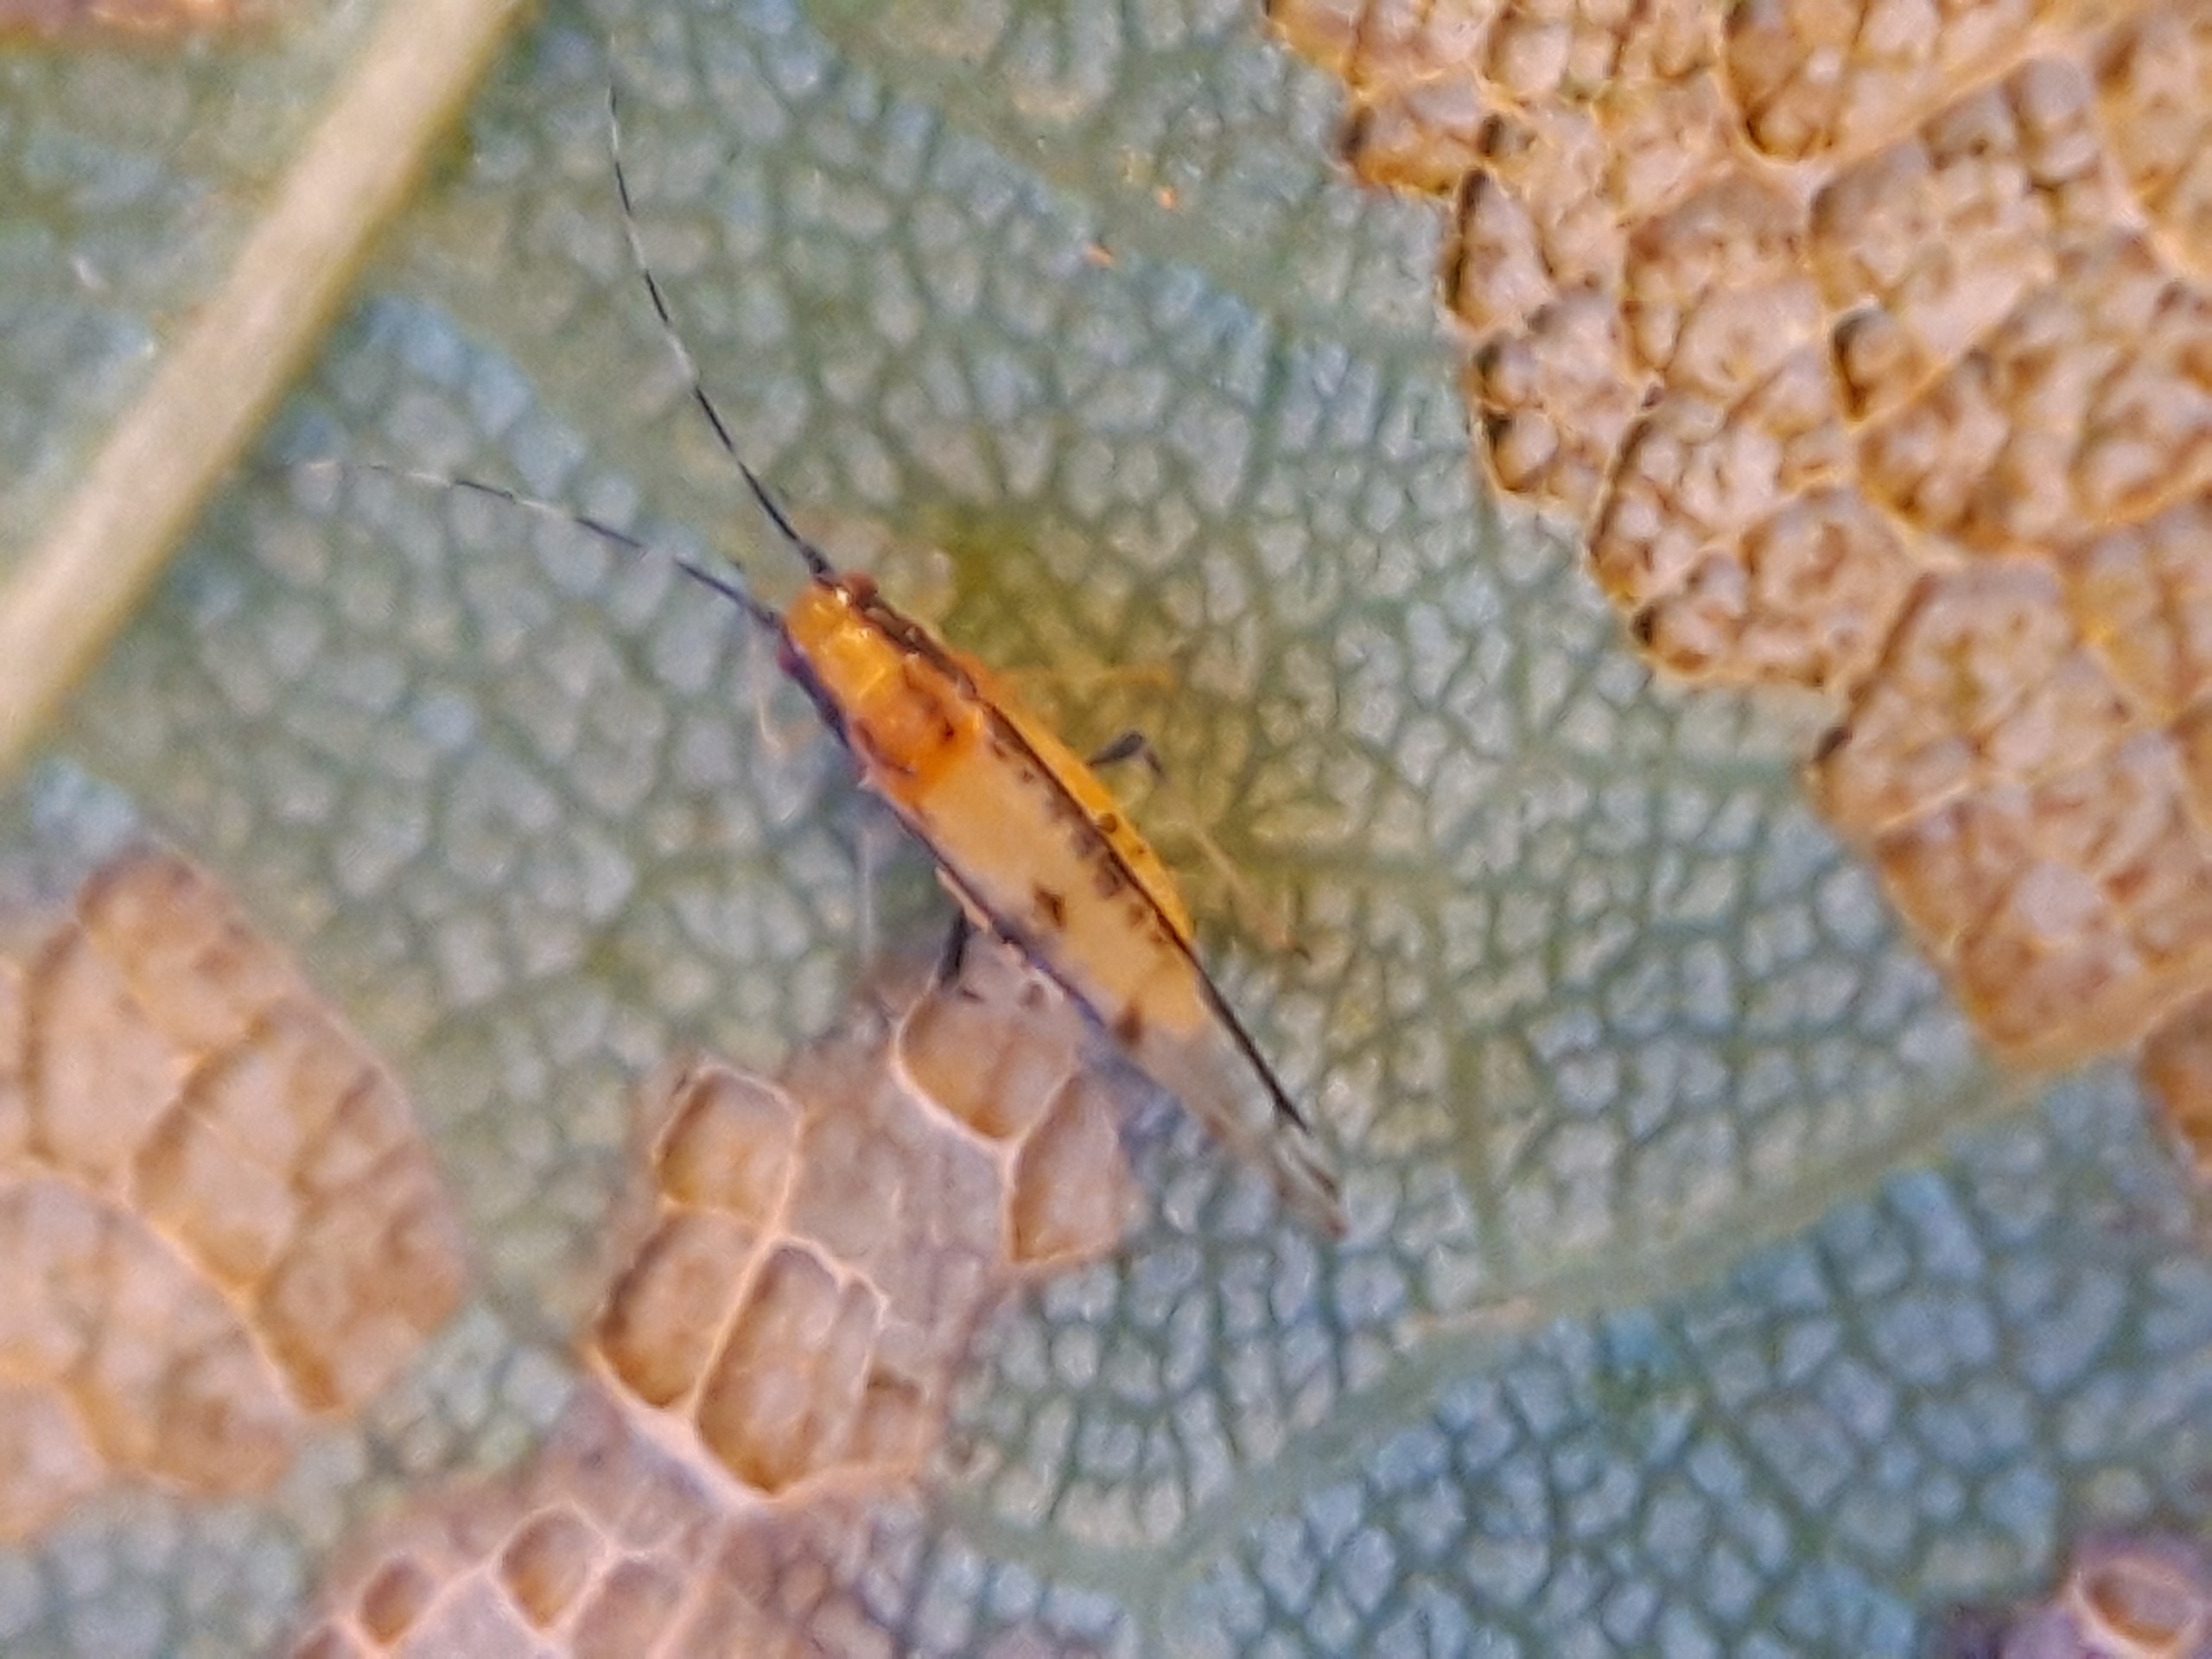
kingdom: Animalia
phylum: Arthropoda
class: Insecta
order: Hemiptera
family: Aphididae
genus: Eucallipterus
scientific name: Eucallipterus tiliae
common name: Lindebladlus
